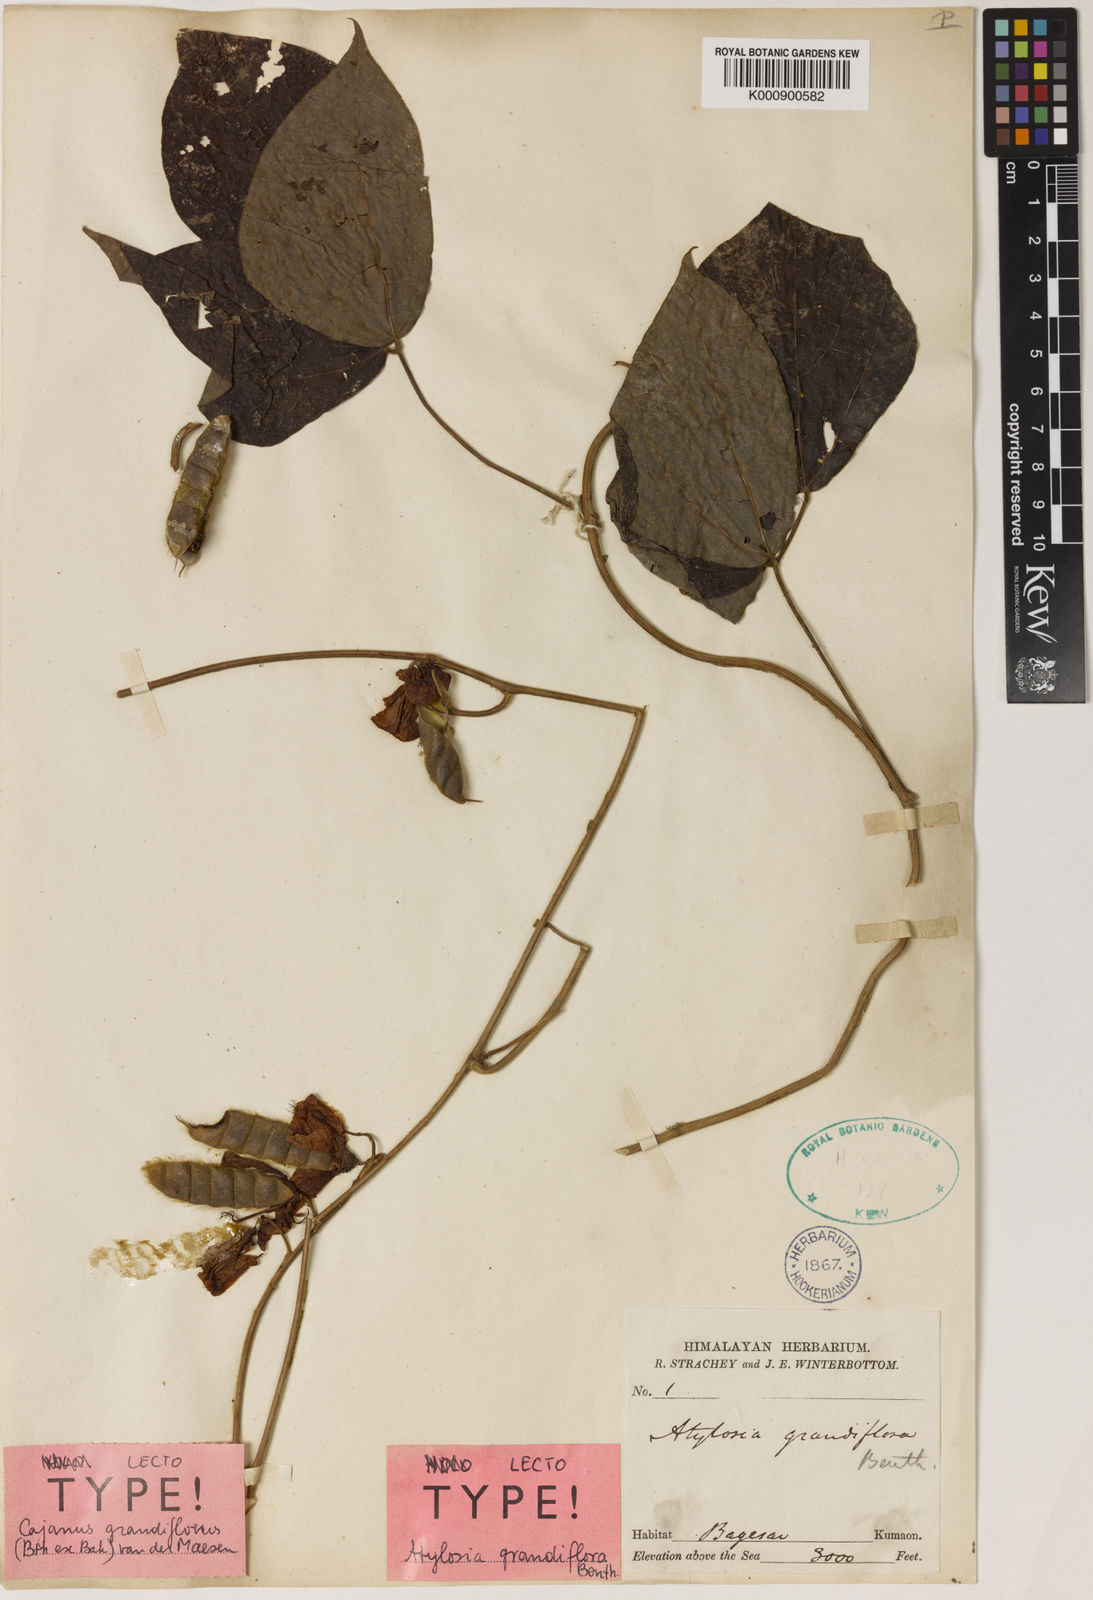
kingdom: Plantae
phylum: Tracheophyta
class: Magnoliopsida
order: Fabales
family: Fabaceae
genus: Cajanus
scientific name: Cajanus grandiflorus
